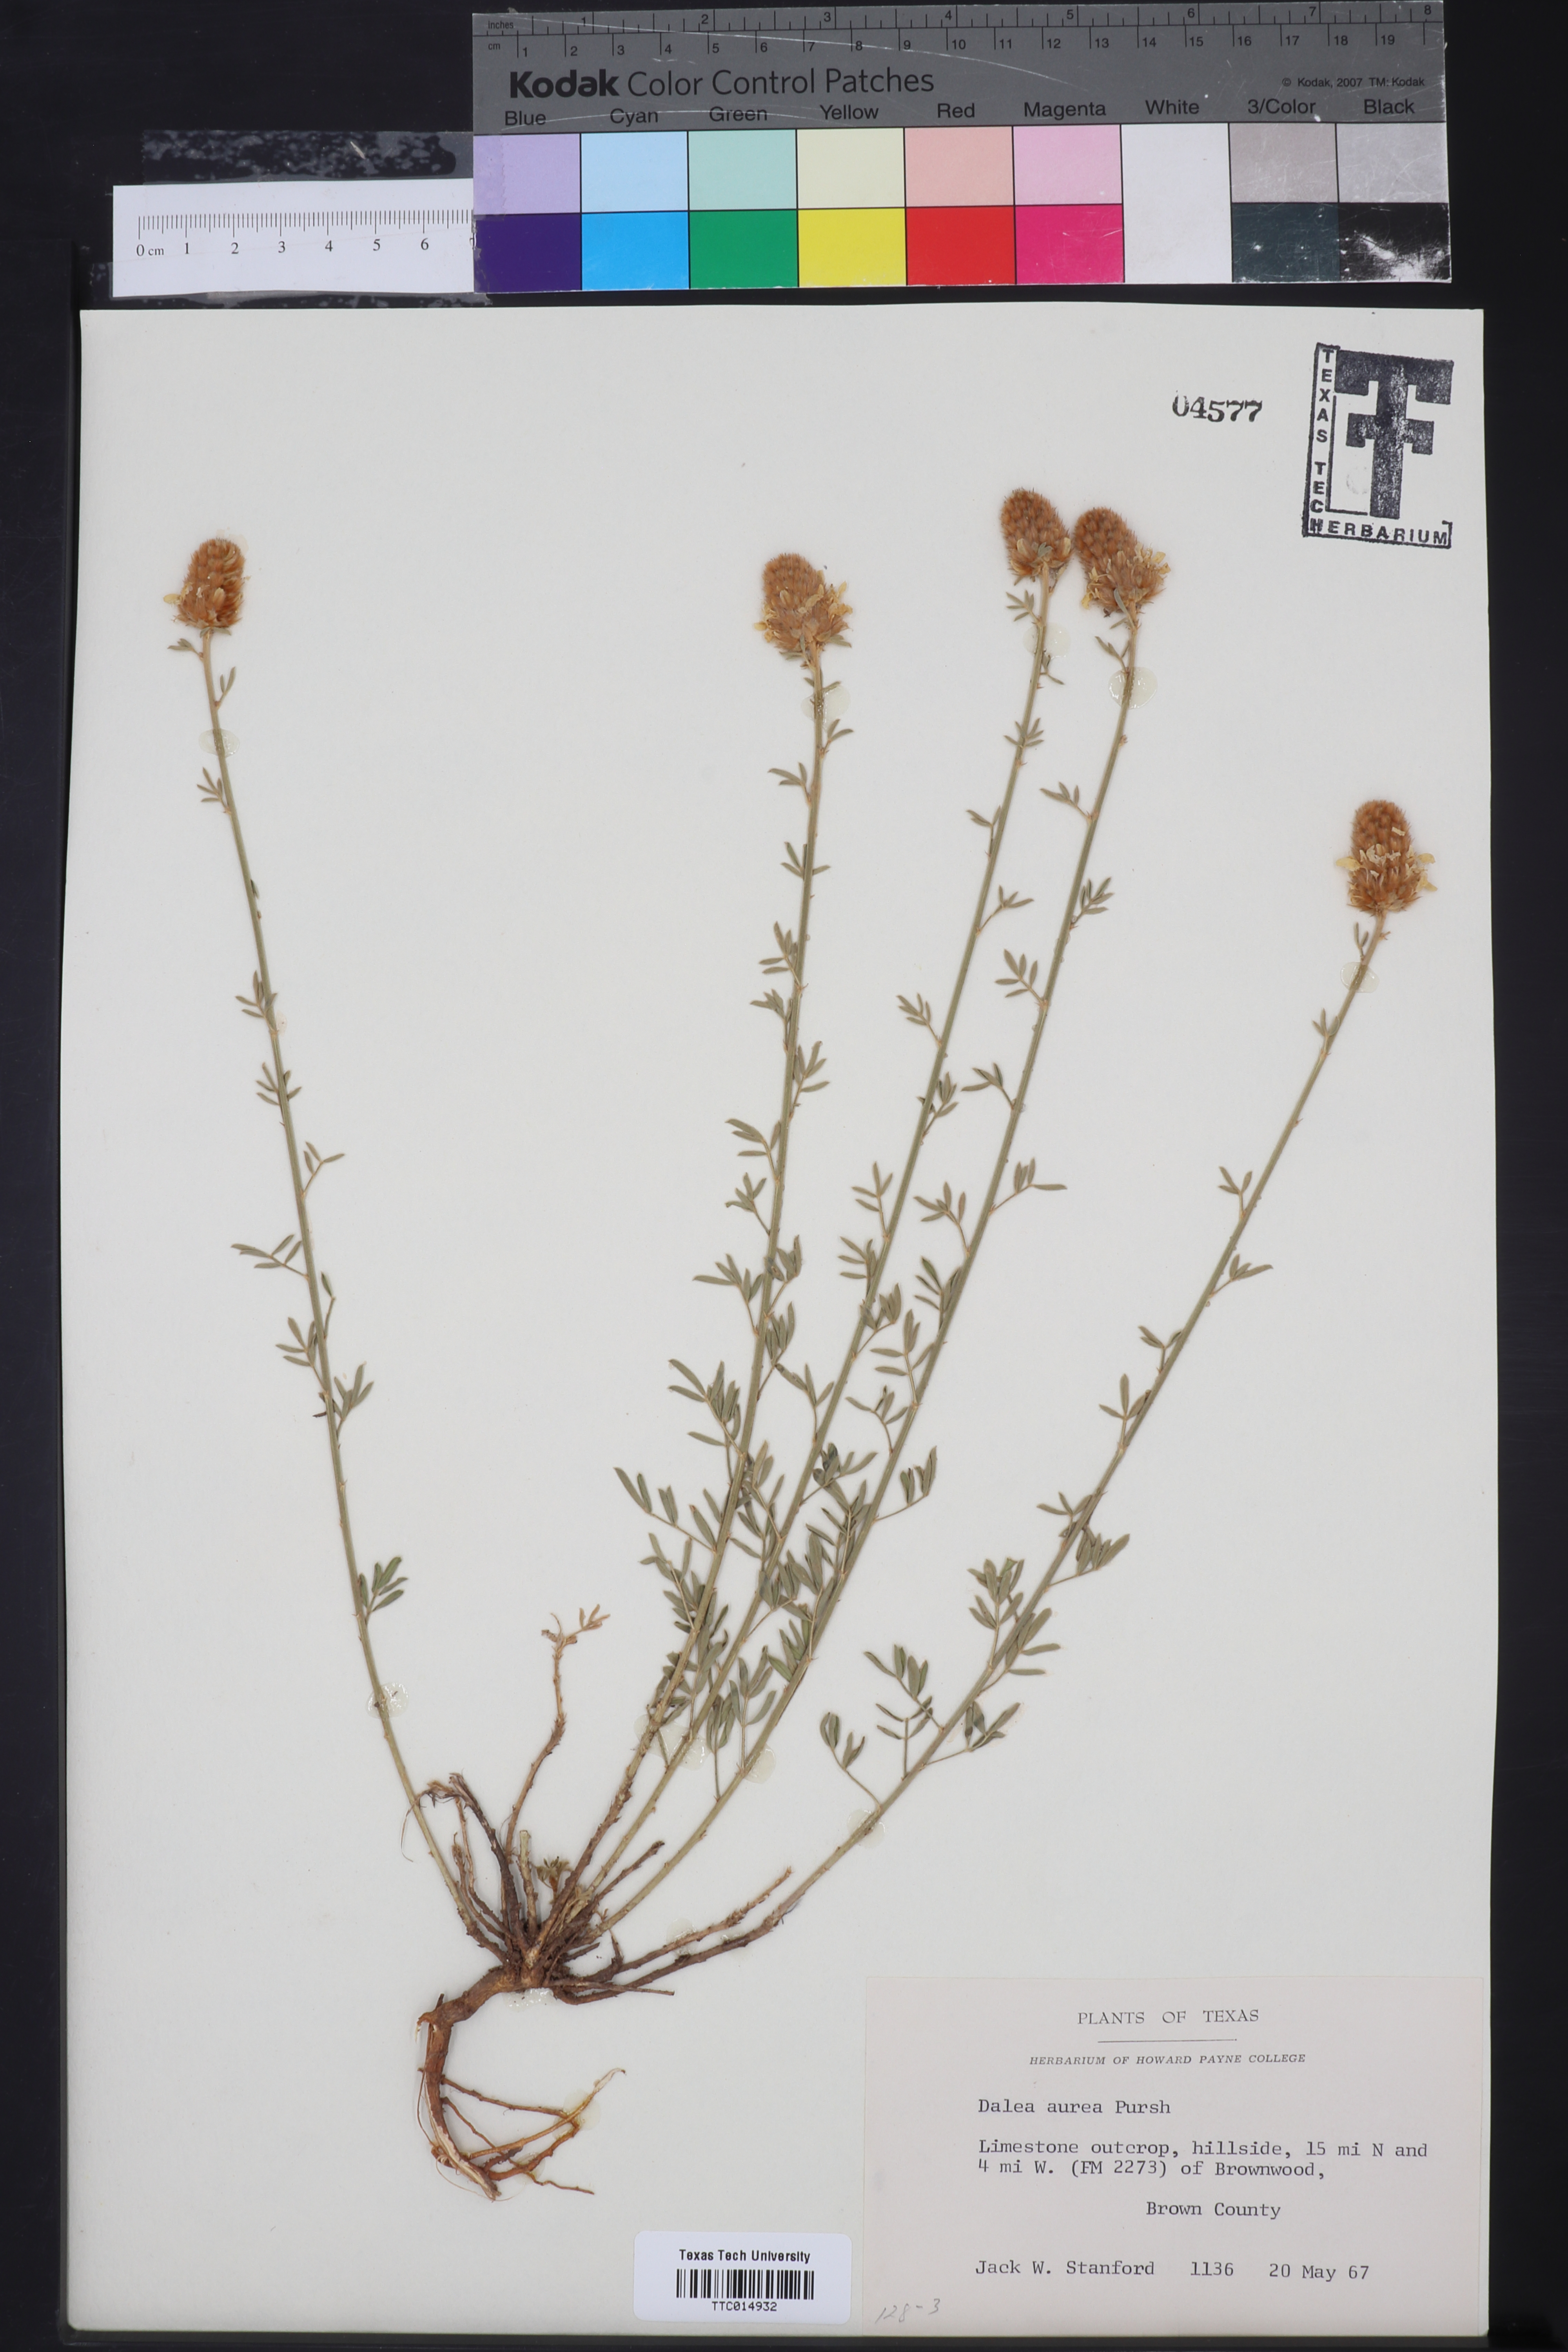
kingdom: Plantae
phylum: Tracheophyta
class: Magnoliopsida
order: Fabales
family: Fabaceae
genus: Dalea
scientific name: Dalea aurea
